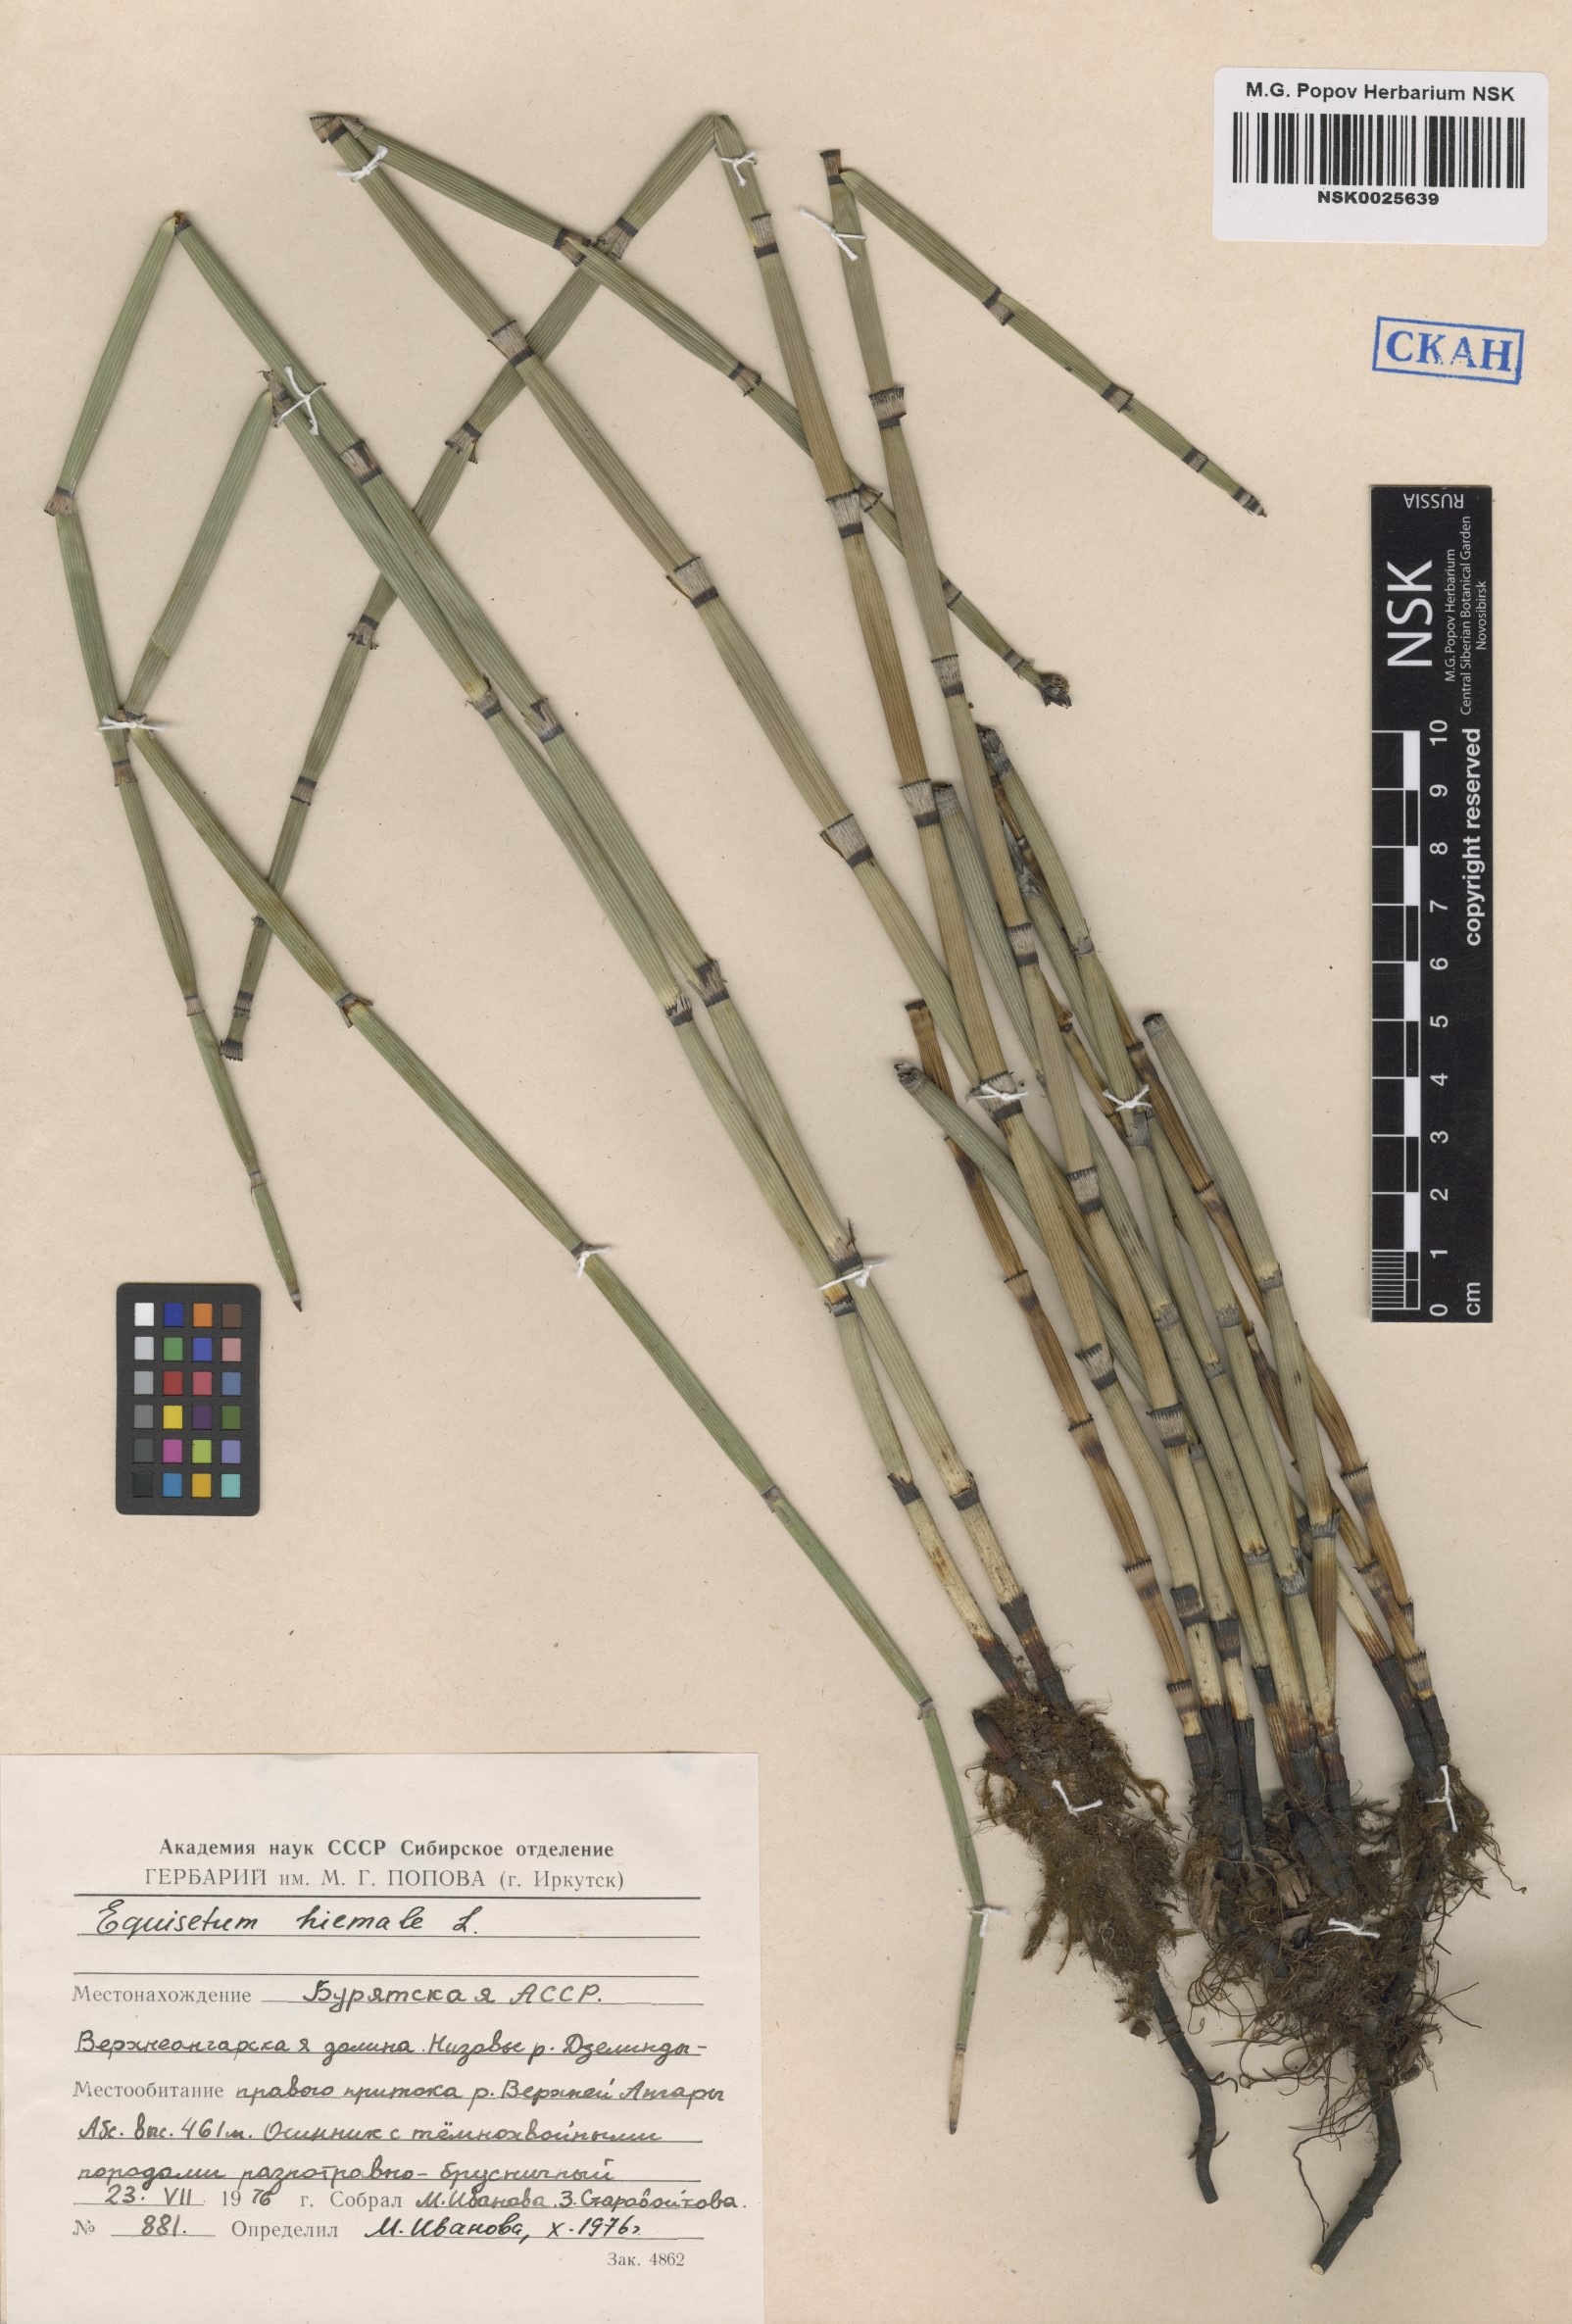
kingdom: Plantae
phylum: Tracheophyta
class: Polypodiopsida
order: Equisetales
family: Equisetaceae
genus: Equisetum
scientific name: Equisetum hyemale
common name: Rough horsetail
